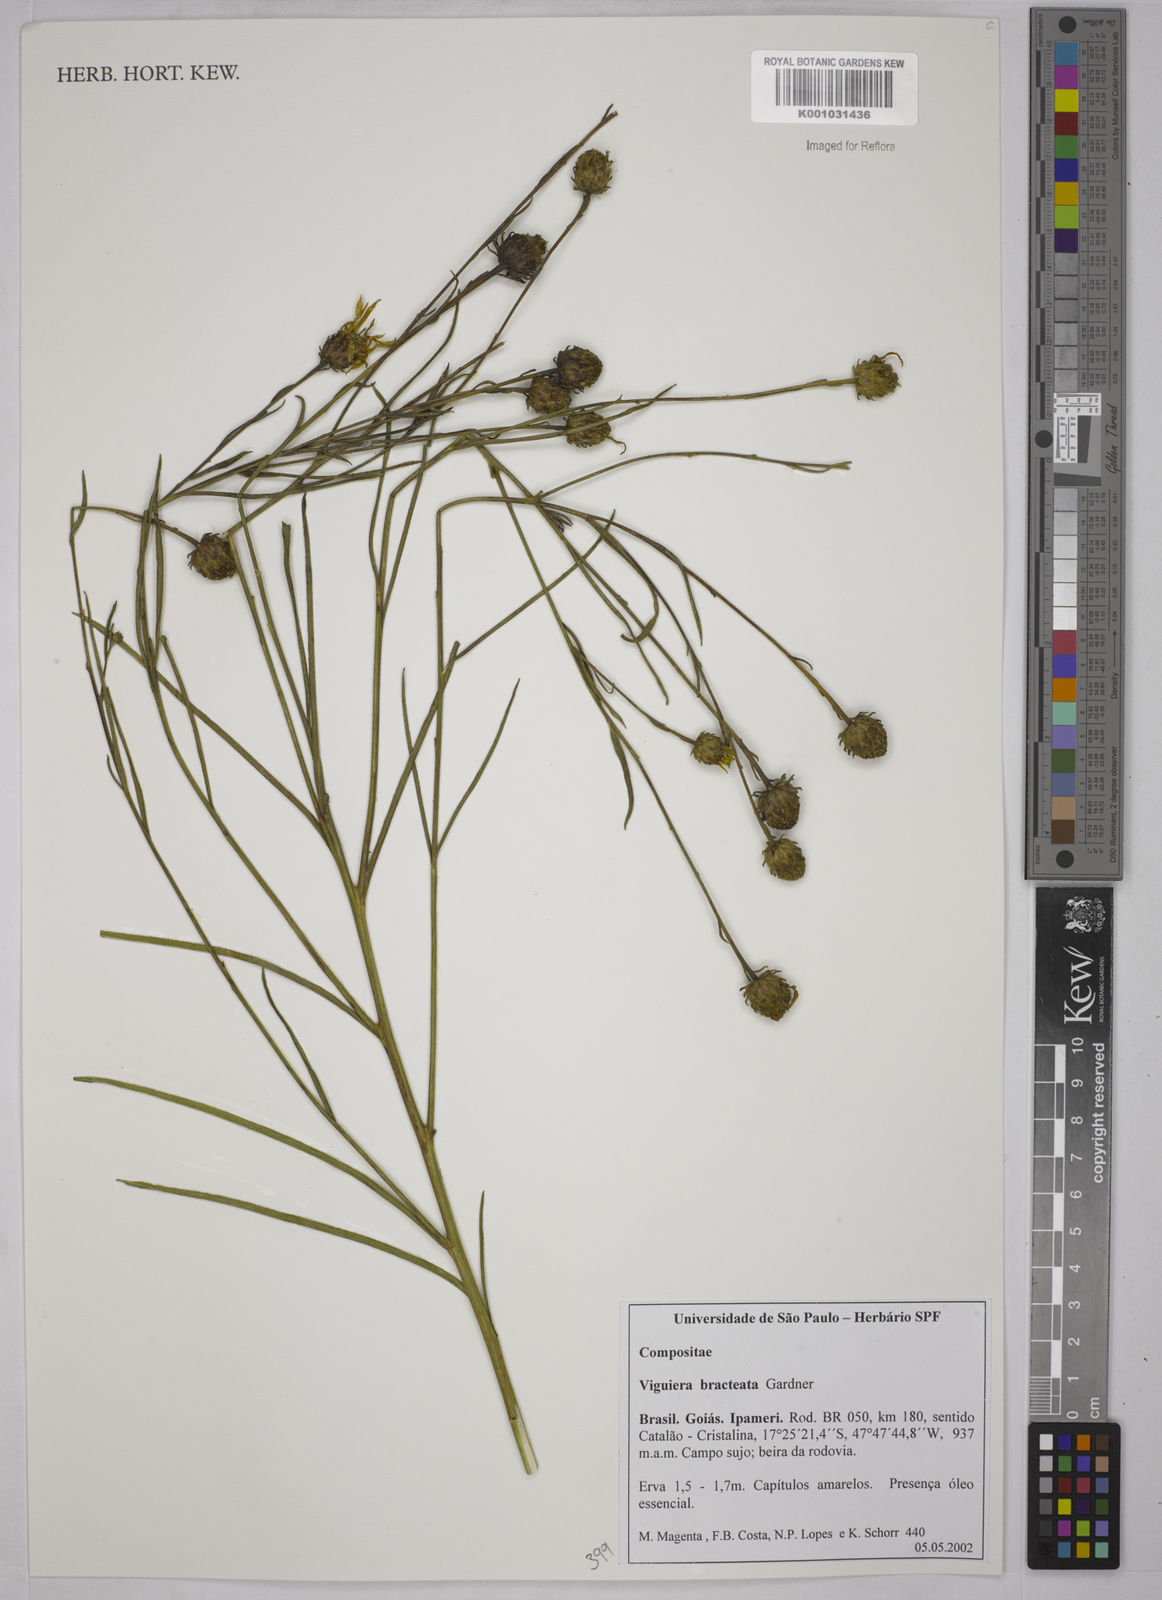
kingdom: Plantae
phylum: Tracheophyta
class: Magnoliopsida
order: Asterales
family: Asteraceae
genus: Aldama
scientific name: Aldama bracteata
